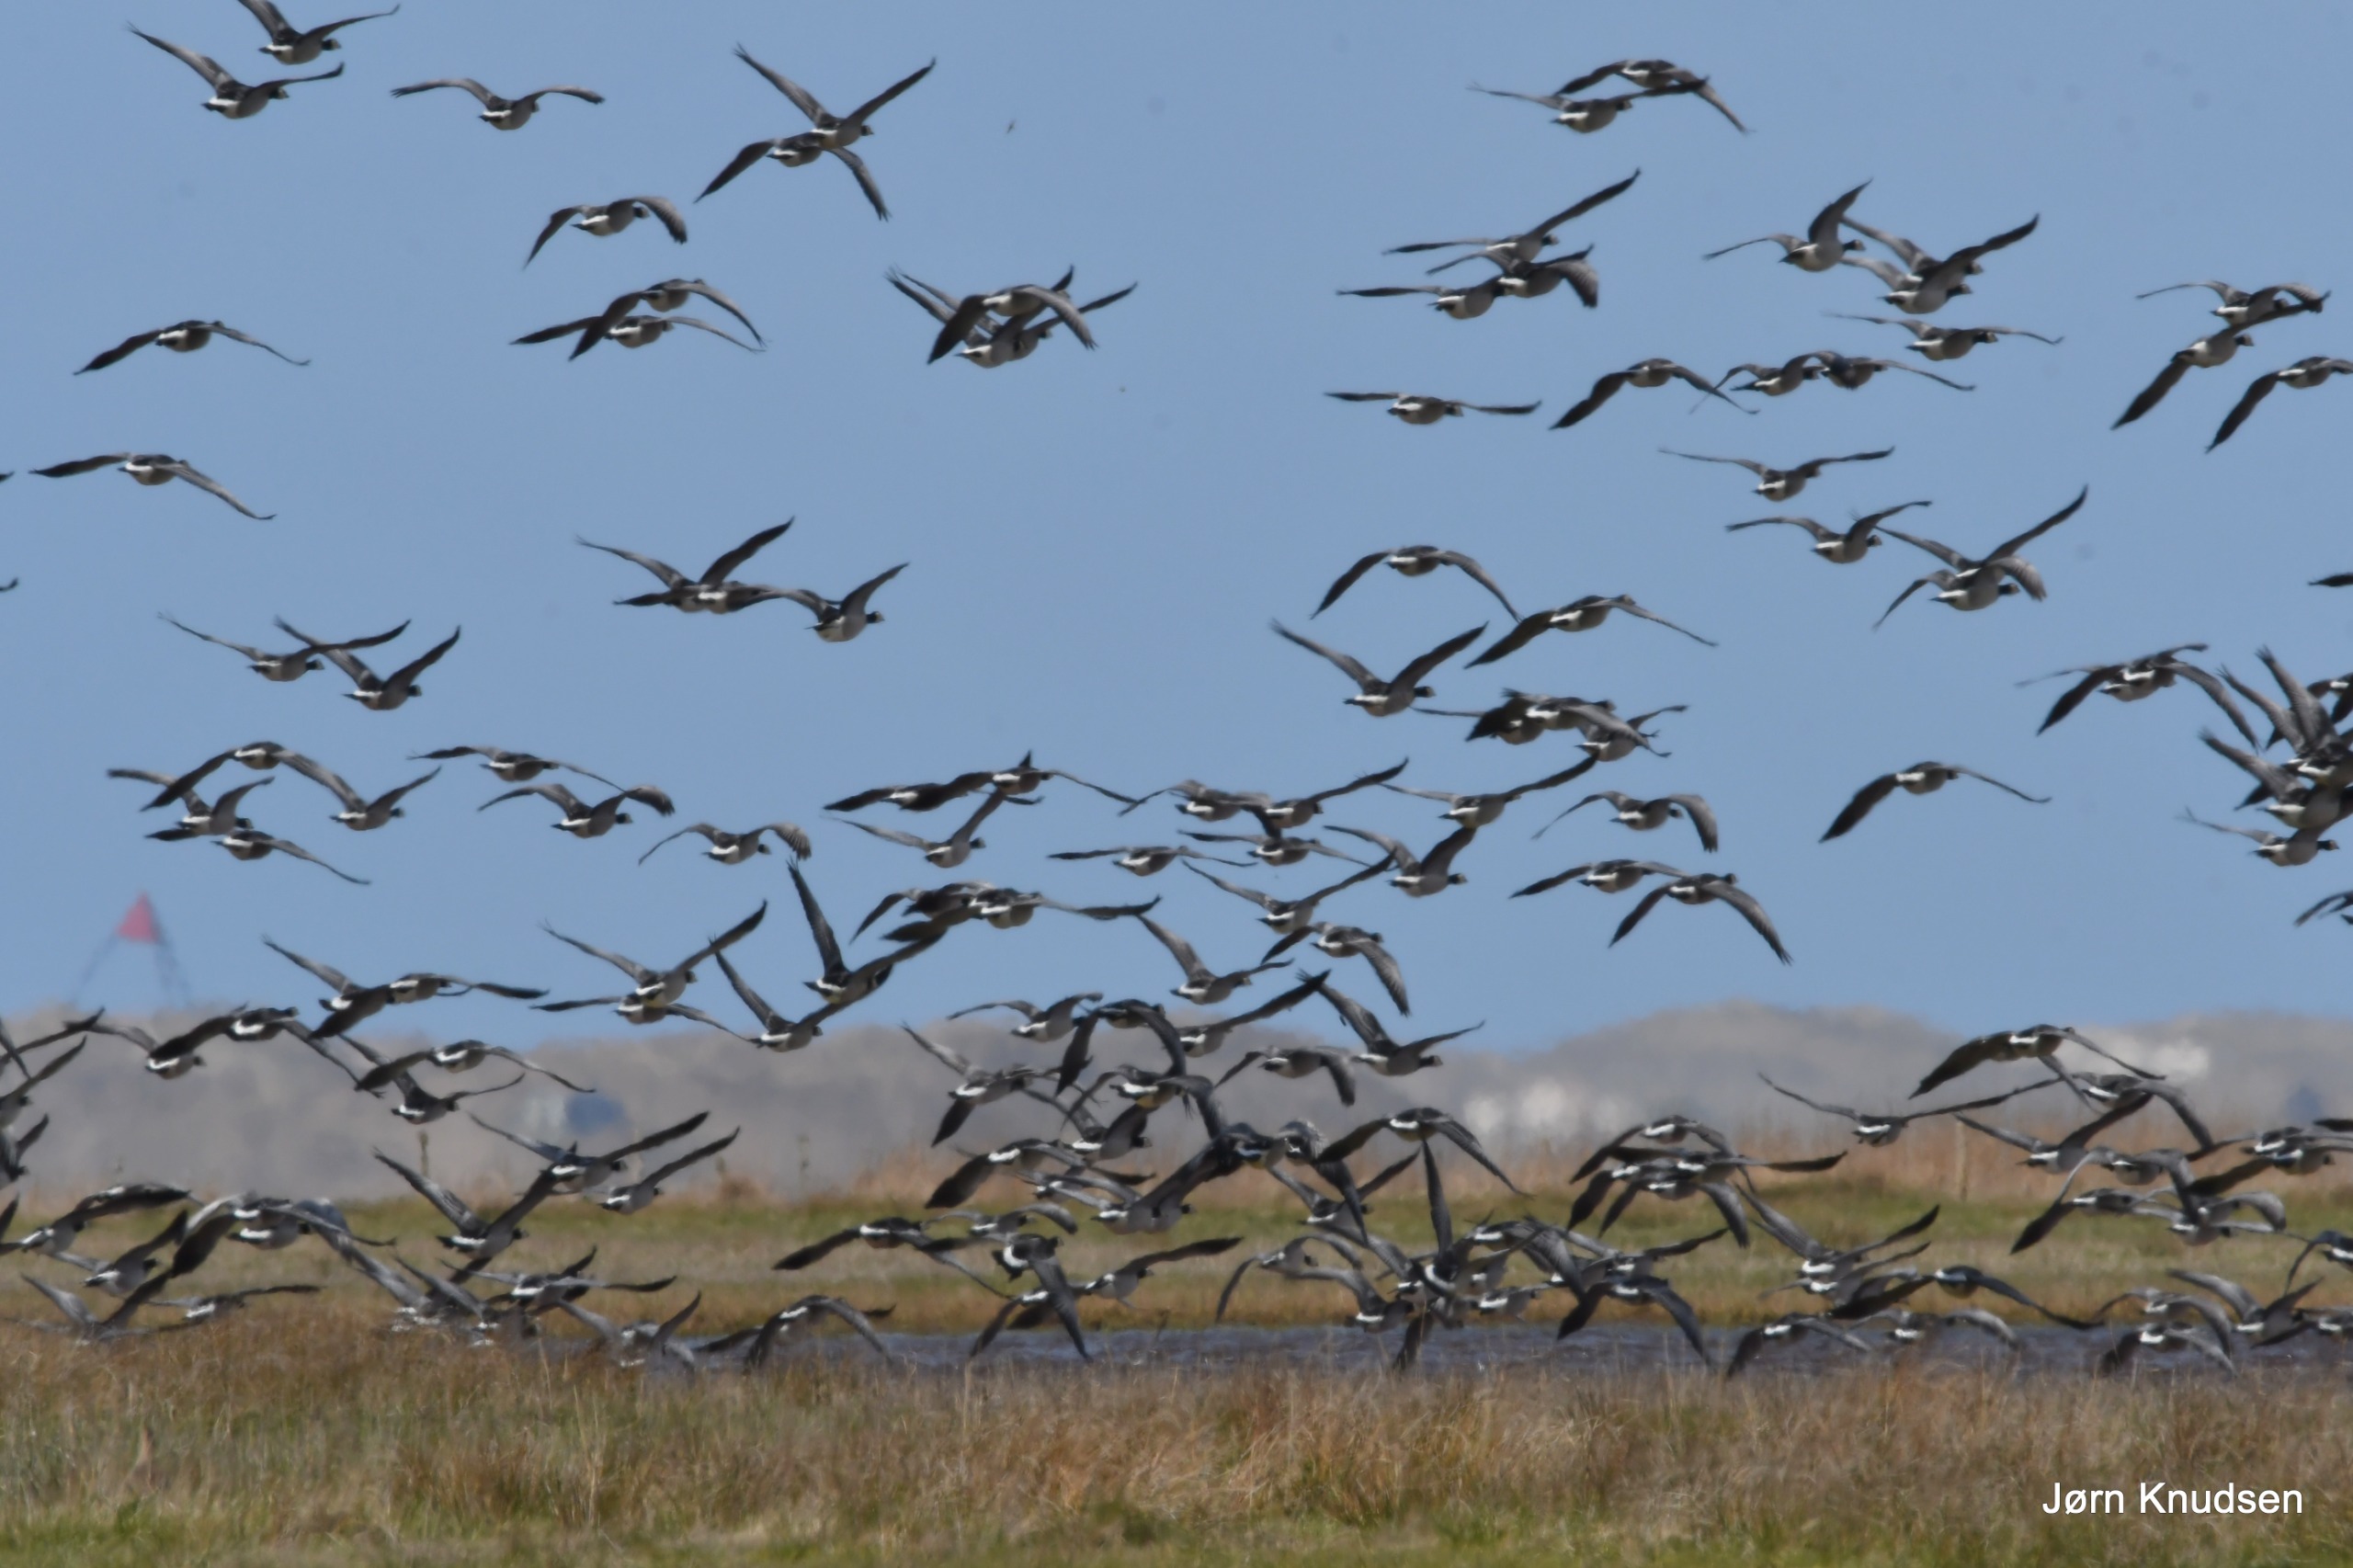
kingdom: Animalia
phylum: Chordata
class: Aves
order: Anseriformes
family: Anatidae
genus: Branta
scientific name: Branta leucopsis
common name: Bramgås
